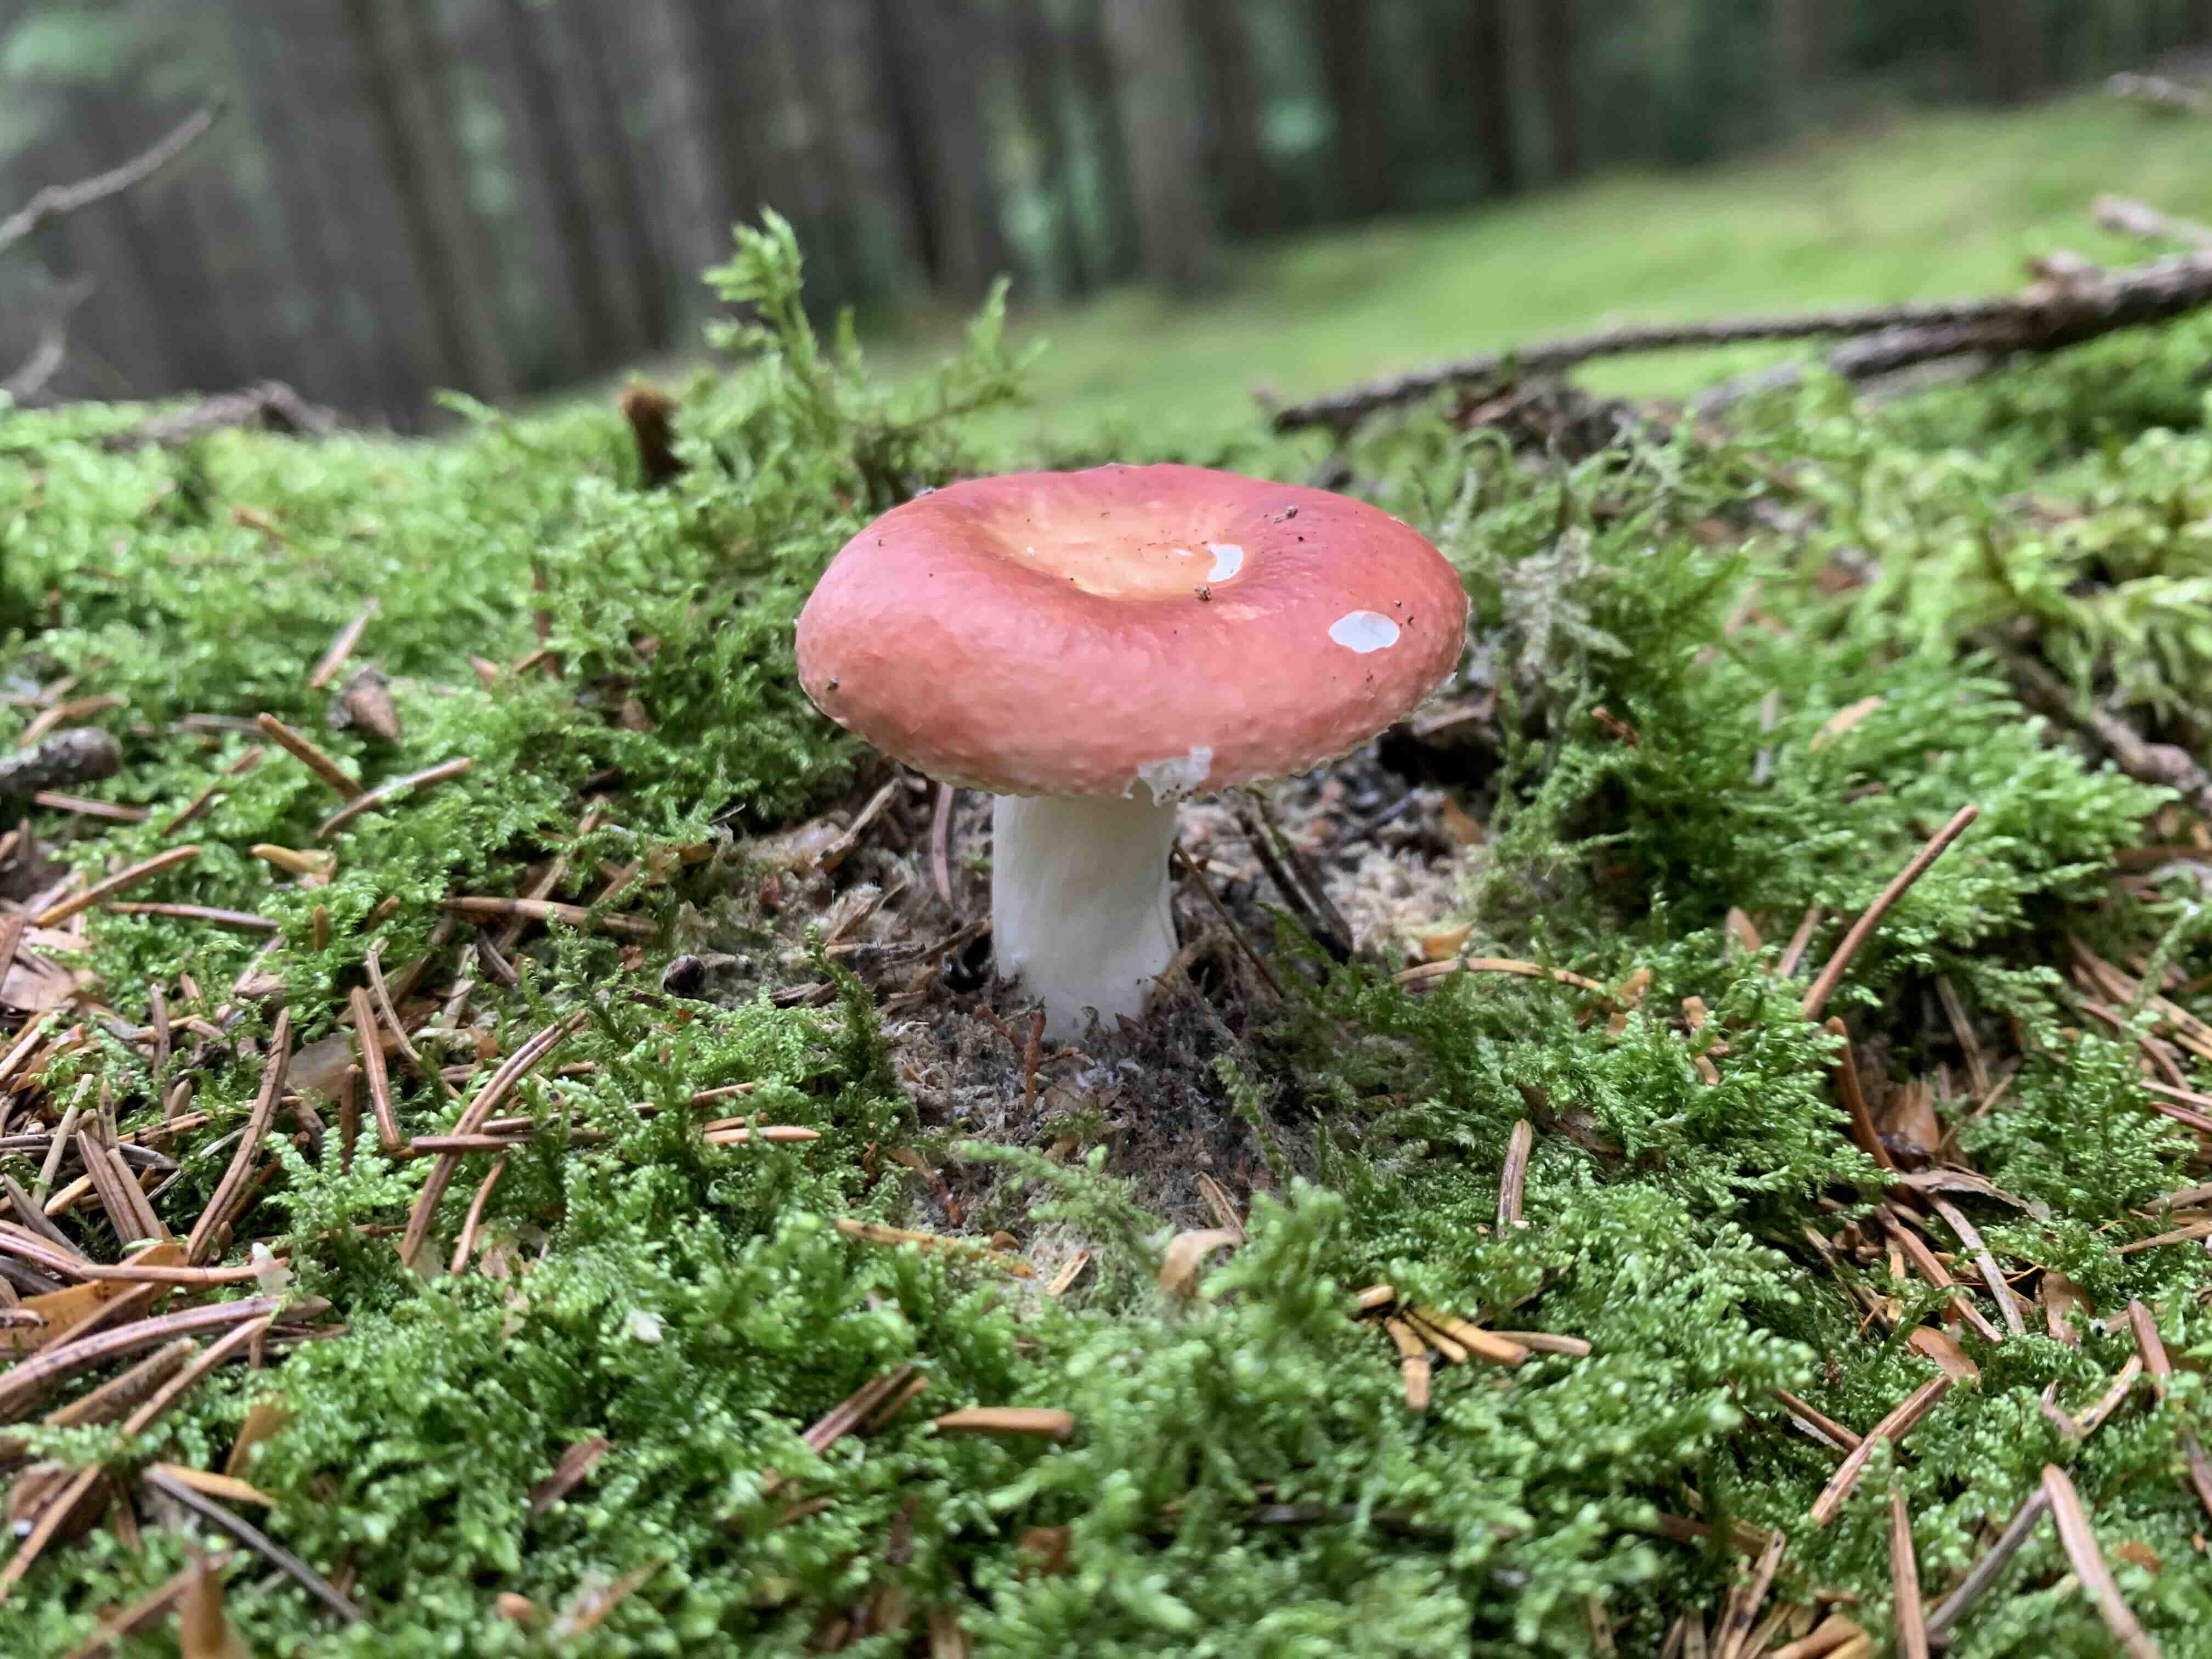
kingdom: Fungi
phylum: Basidiomycota
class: Agaricomycetes
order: Russulales
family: Russulaceae
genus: Russula
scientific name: Russula paludosa
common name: prægtig skørhat
